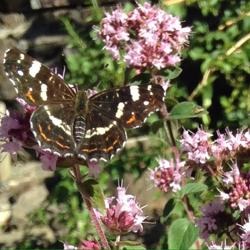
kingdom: Animalia
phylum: Arthropoda
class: Insecta
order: Lepidoptera
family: Nymphalidae
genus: Araschnia
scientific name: Araschnia levana
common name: Nældesommerfugl
